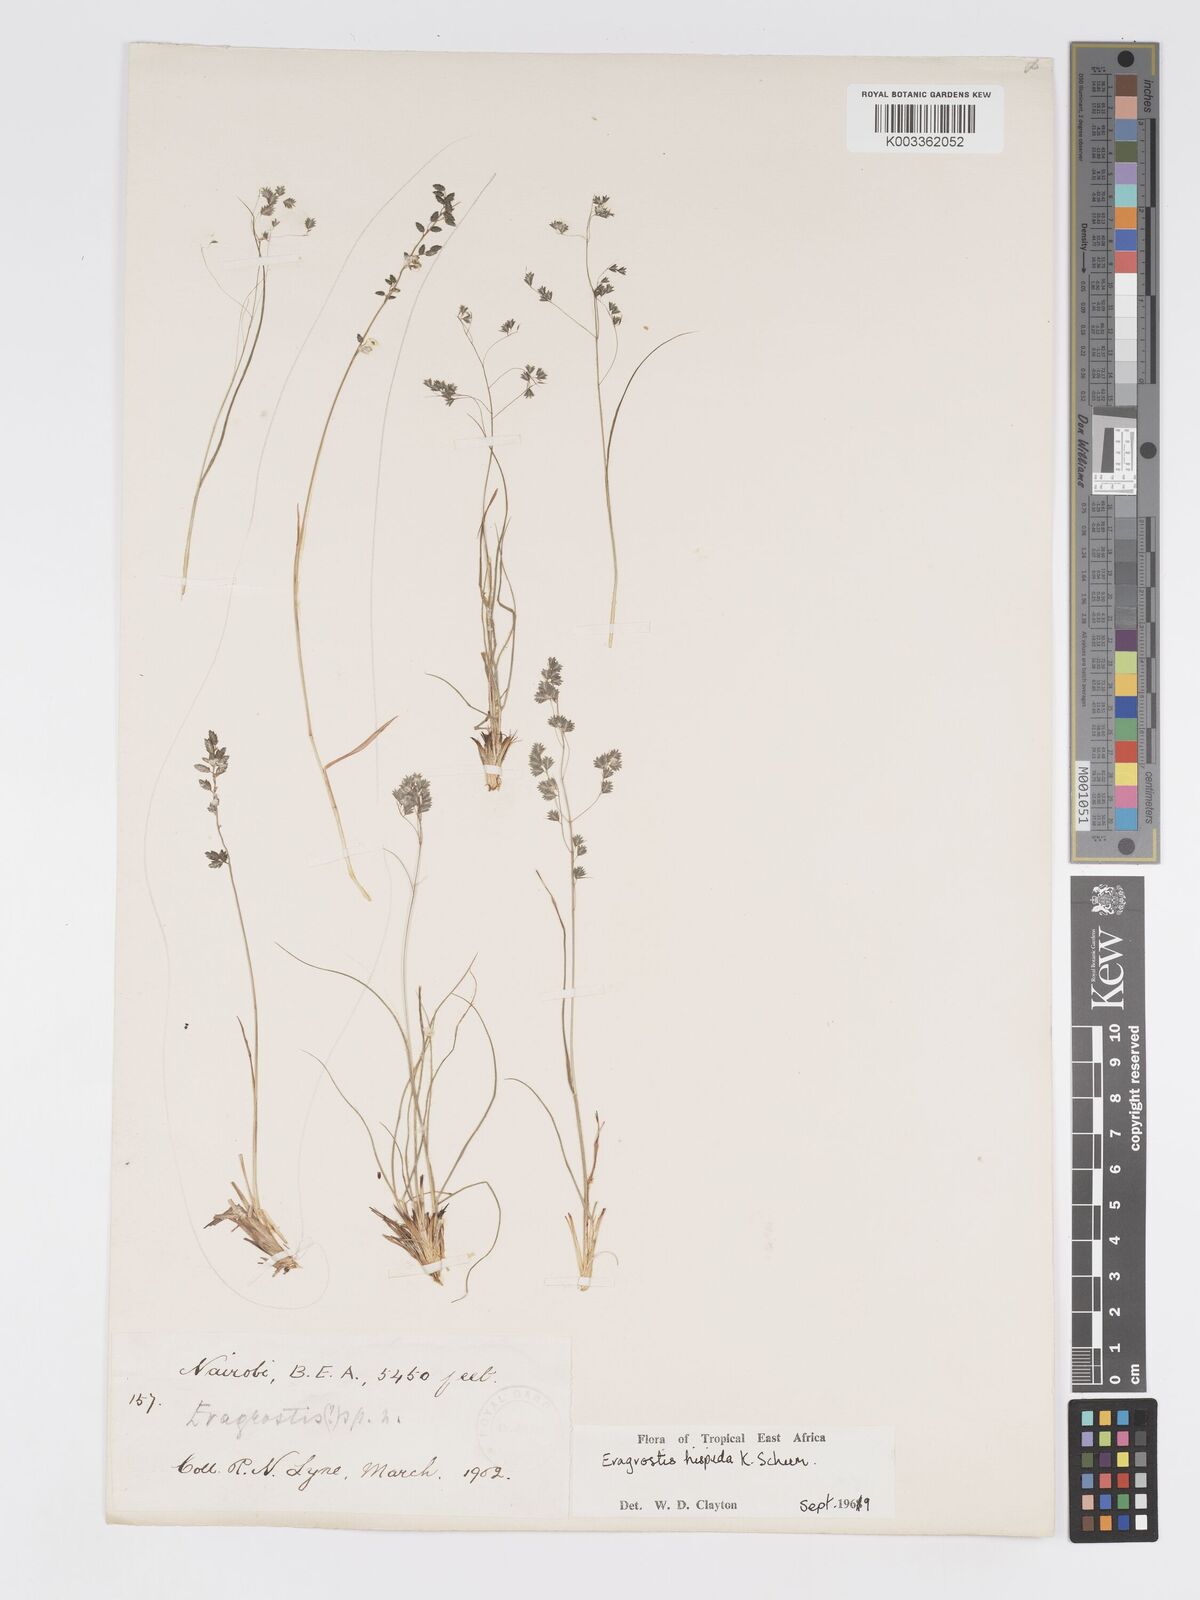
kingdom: Plantae
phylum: Tracheophyta
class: Liliopsida
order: Poales
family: Poaceae
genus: Eragrostis
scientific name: Eragrostis hispida
